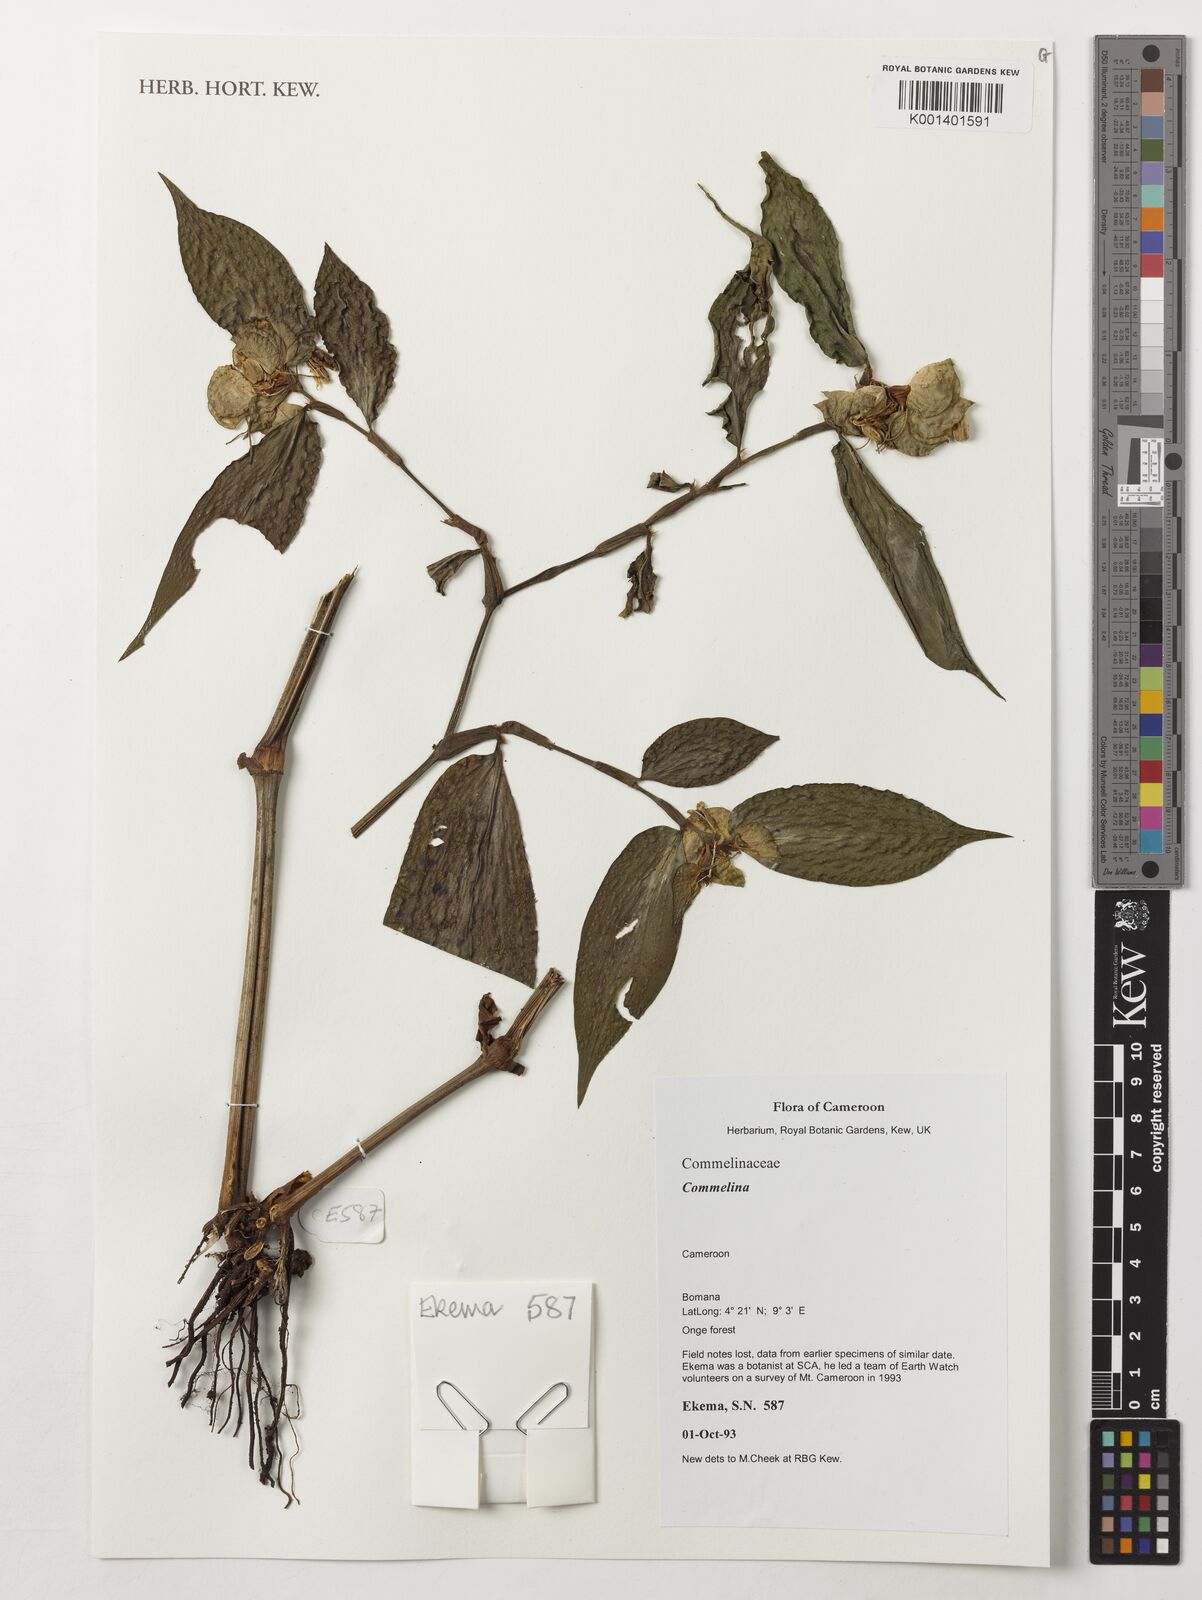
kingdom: Plantae
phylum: Tracheophyta
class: Liliopsida
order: Commelinales
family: Commelinaceae
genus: Commelina
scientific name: Commelina
